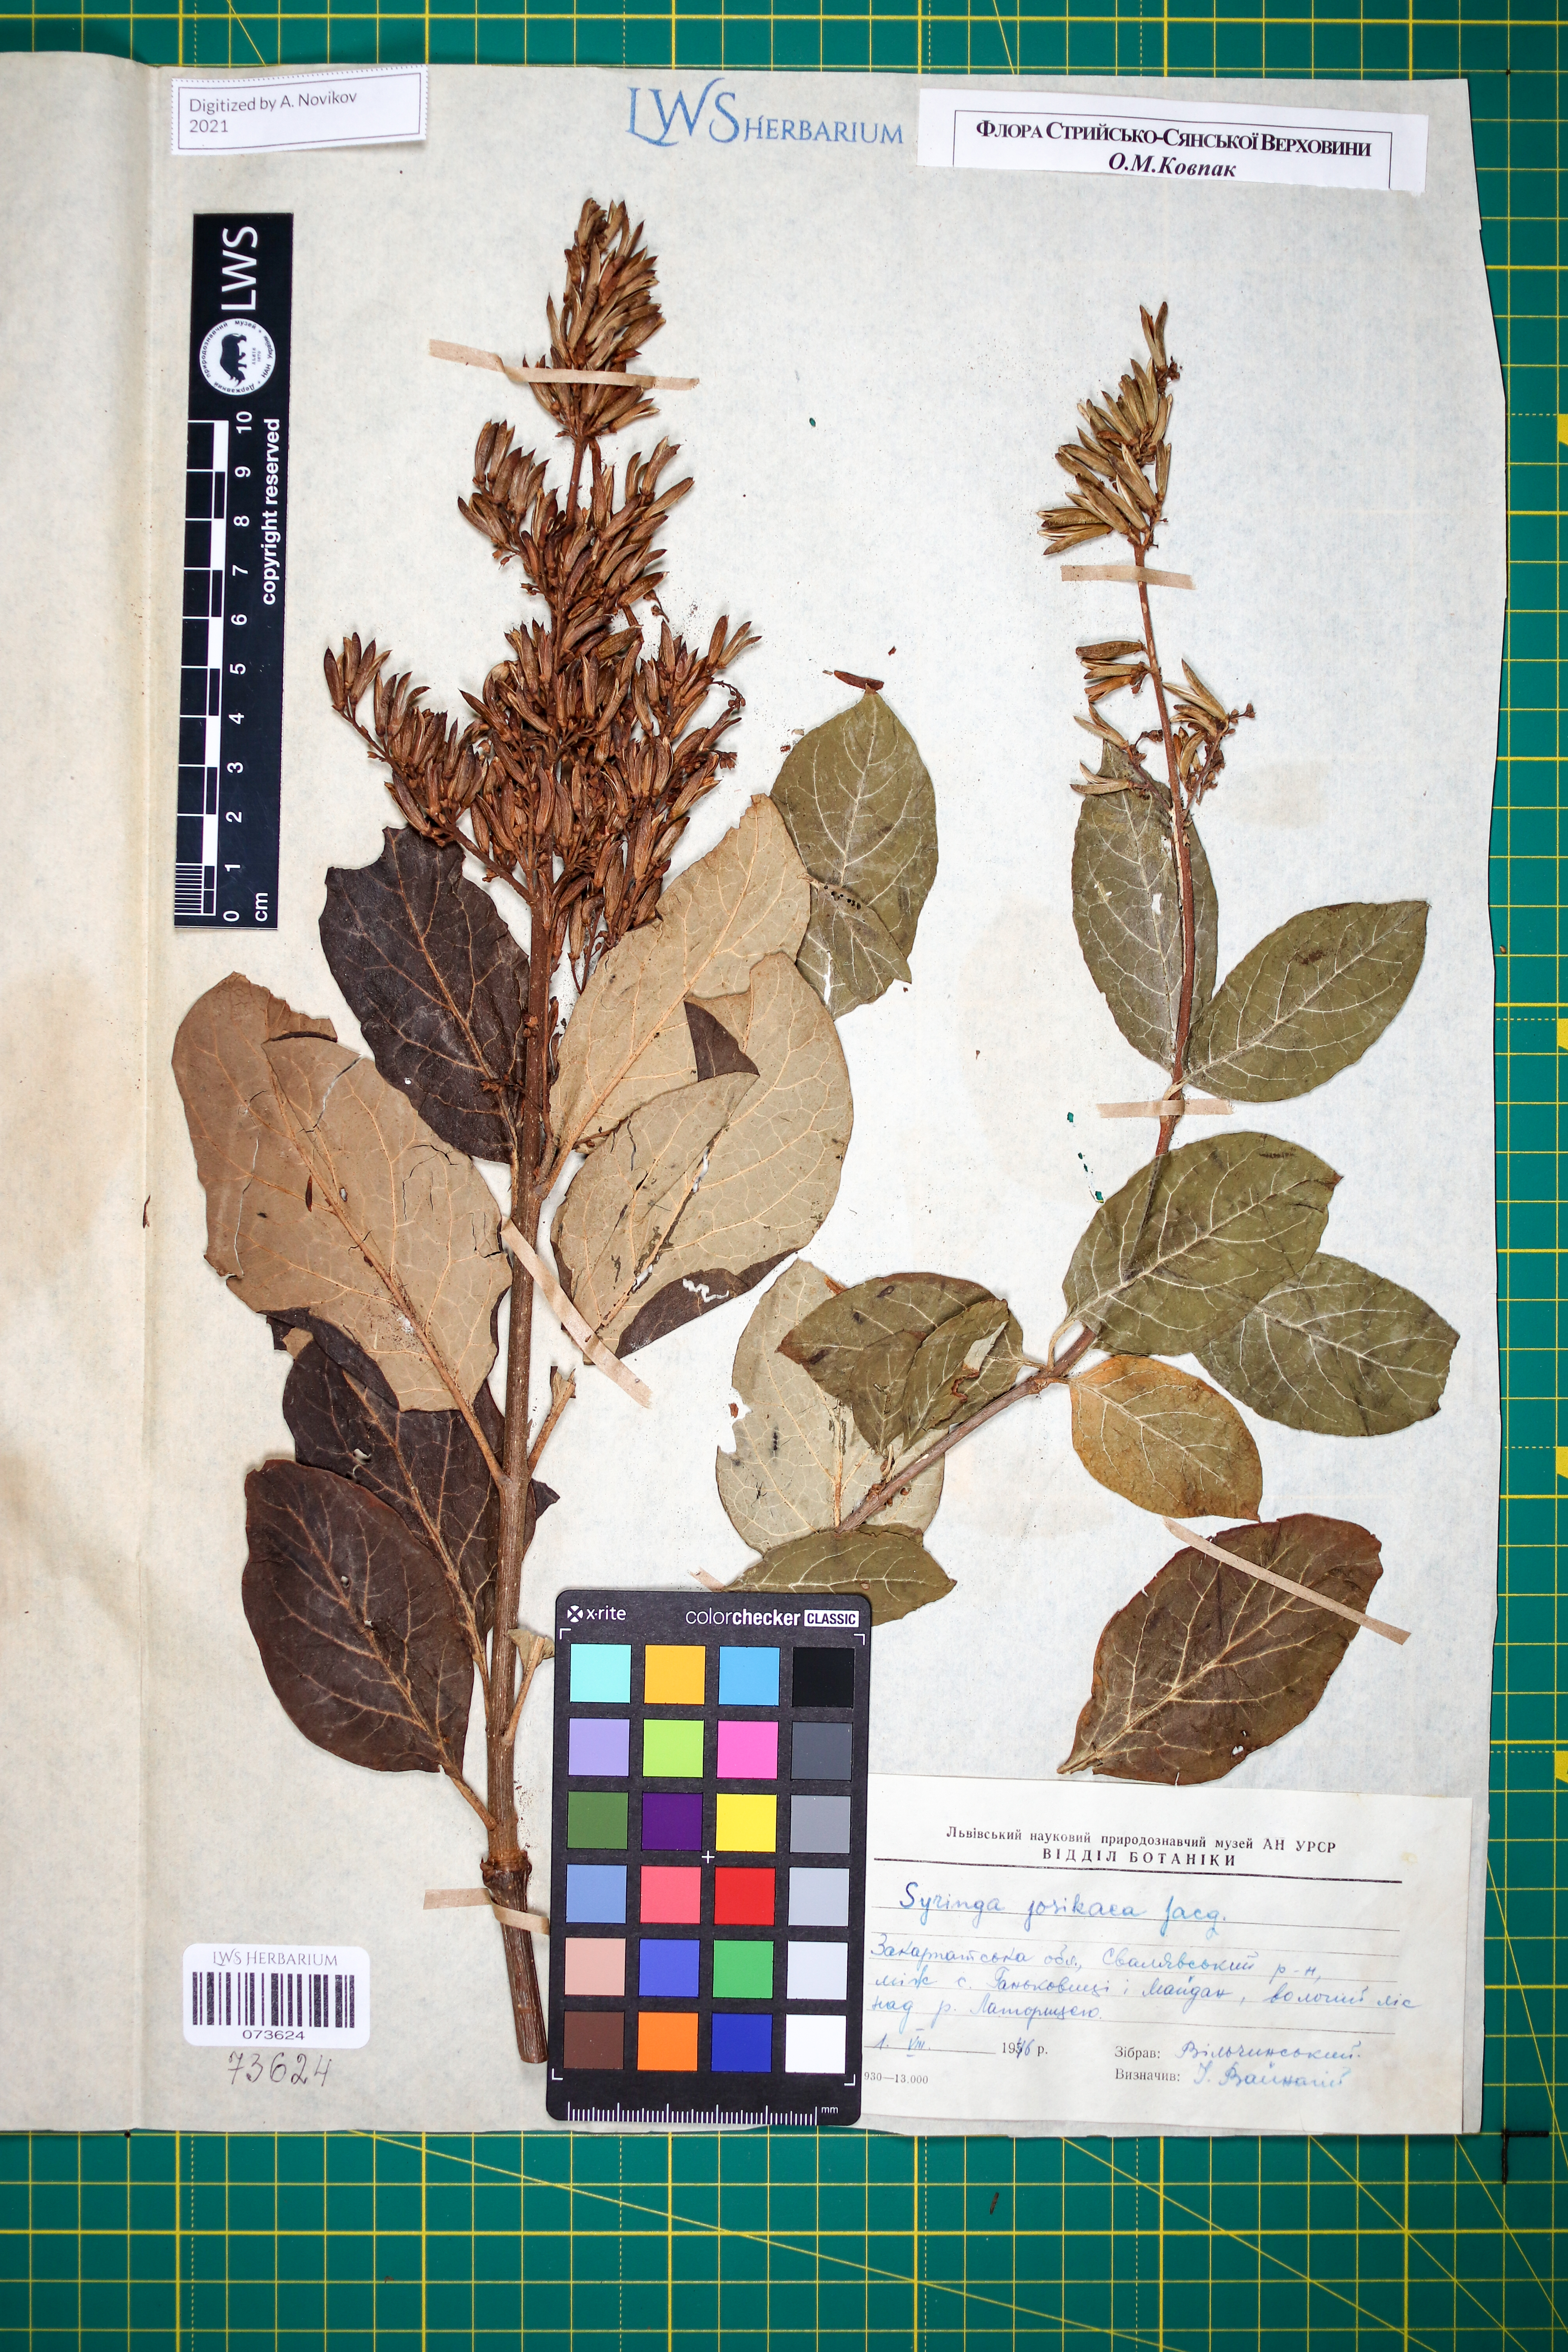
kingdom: Plantae
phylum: Tracheophyta
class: Magnoliopsida
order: Lamiales
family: Oleaceae
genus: Syringa
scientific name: Syringa josikaea
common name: Hungarian lilac
